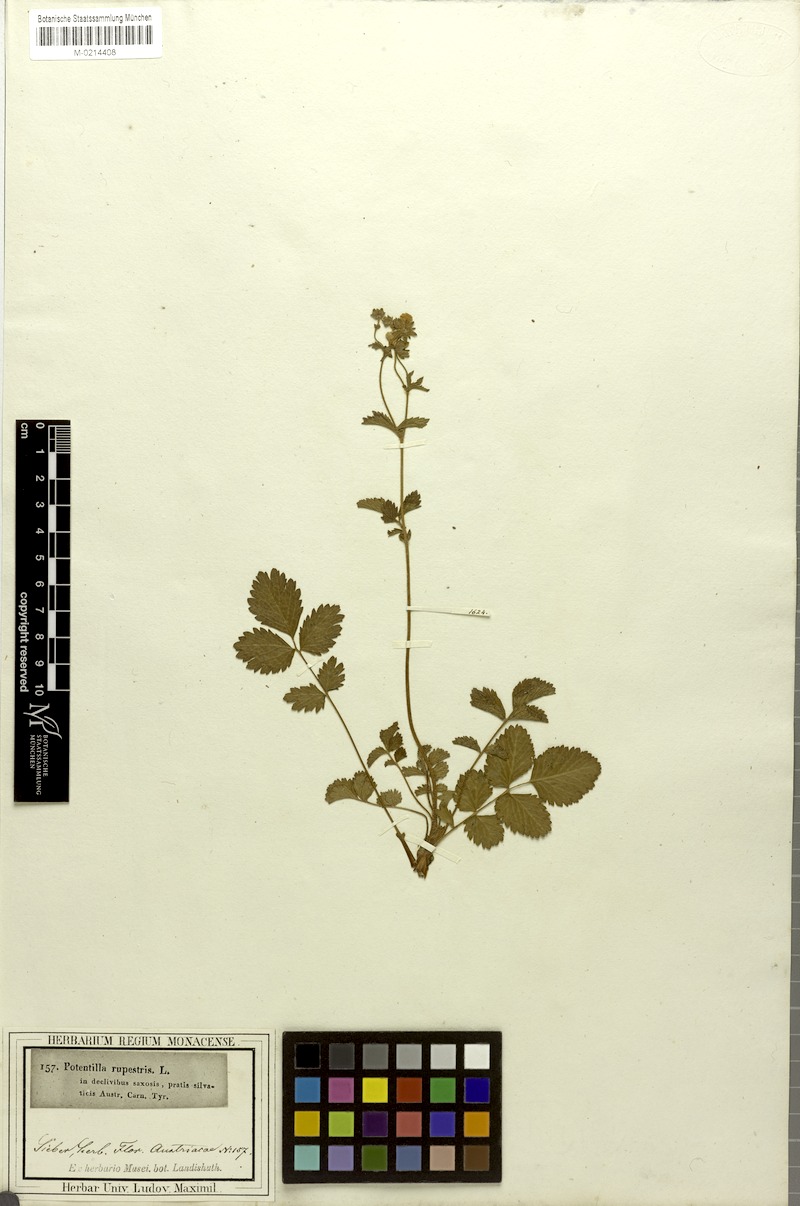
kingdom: Plantae
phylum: Tracheophyta
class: Magnoliopsida
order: Rosales
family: Rosaceae
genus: Drymocallis
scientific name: Drymocallis rupestris
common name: Rock cinquefoil
